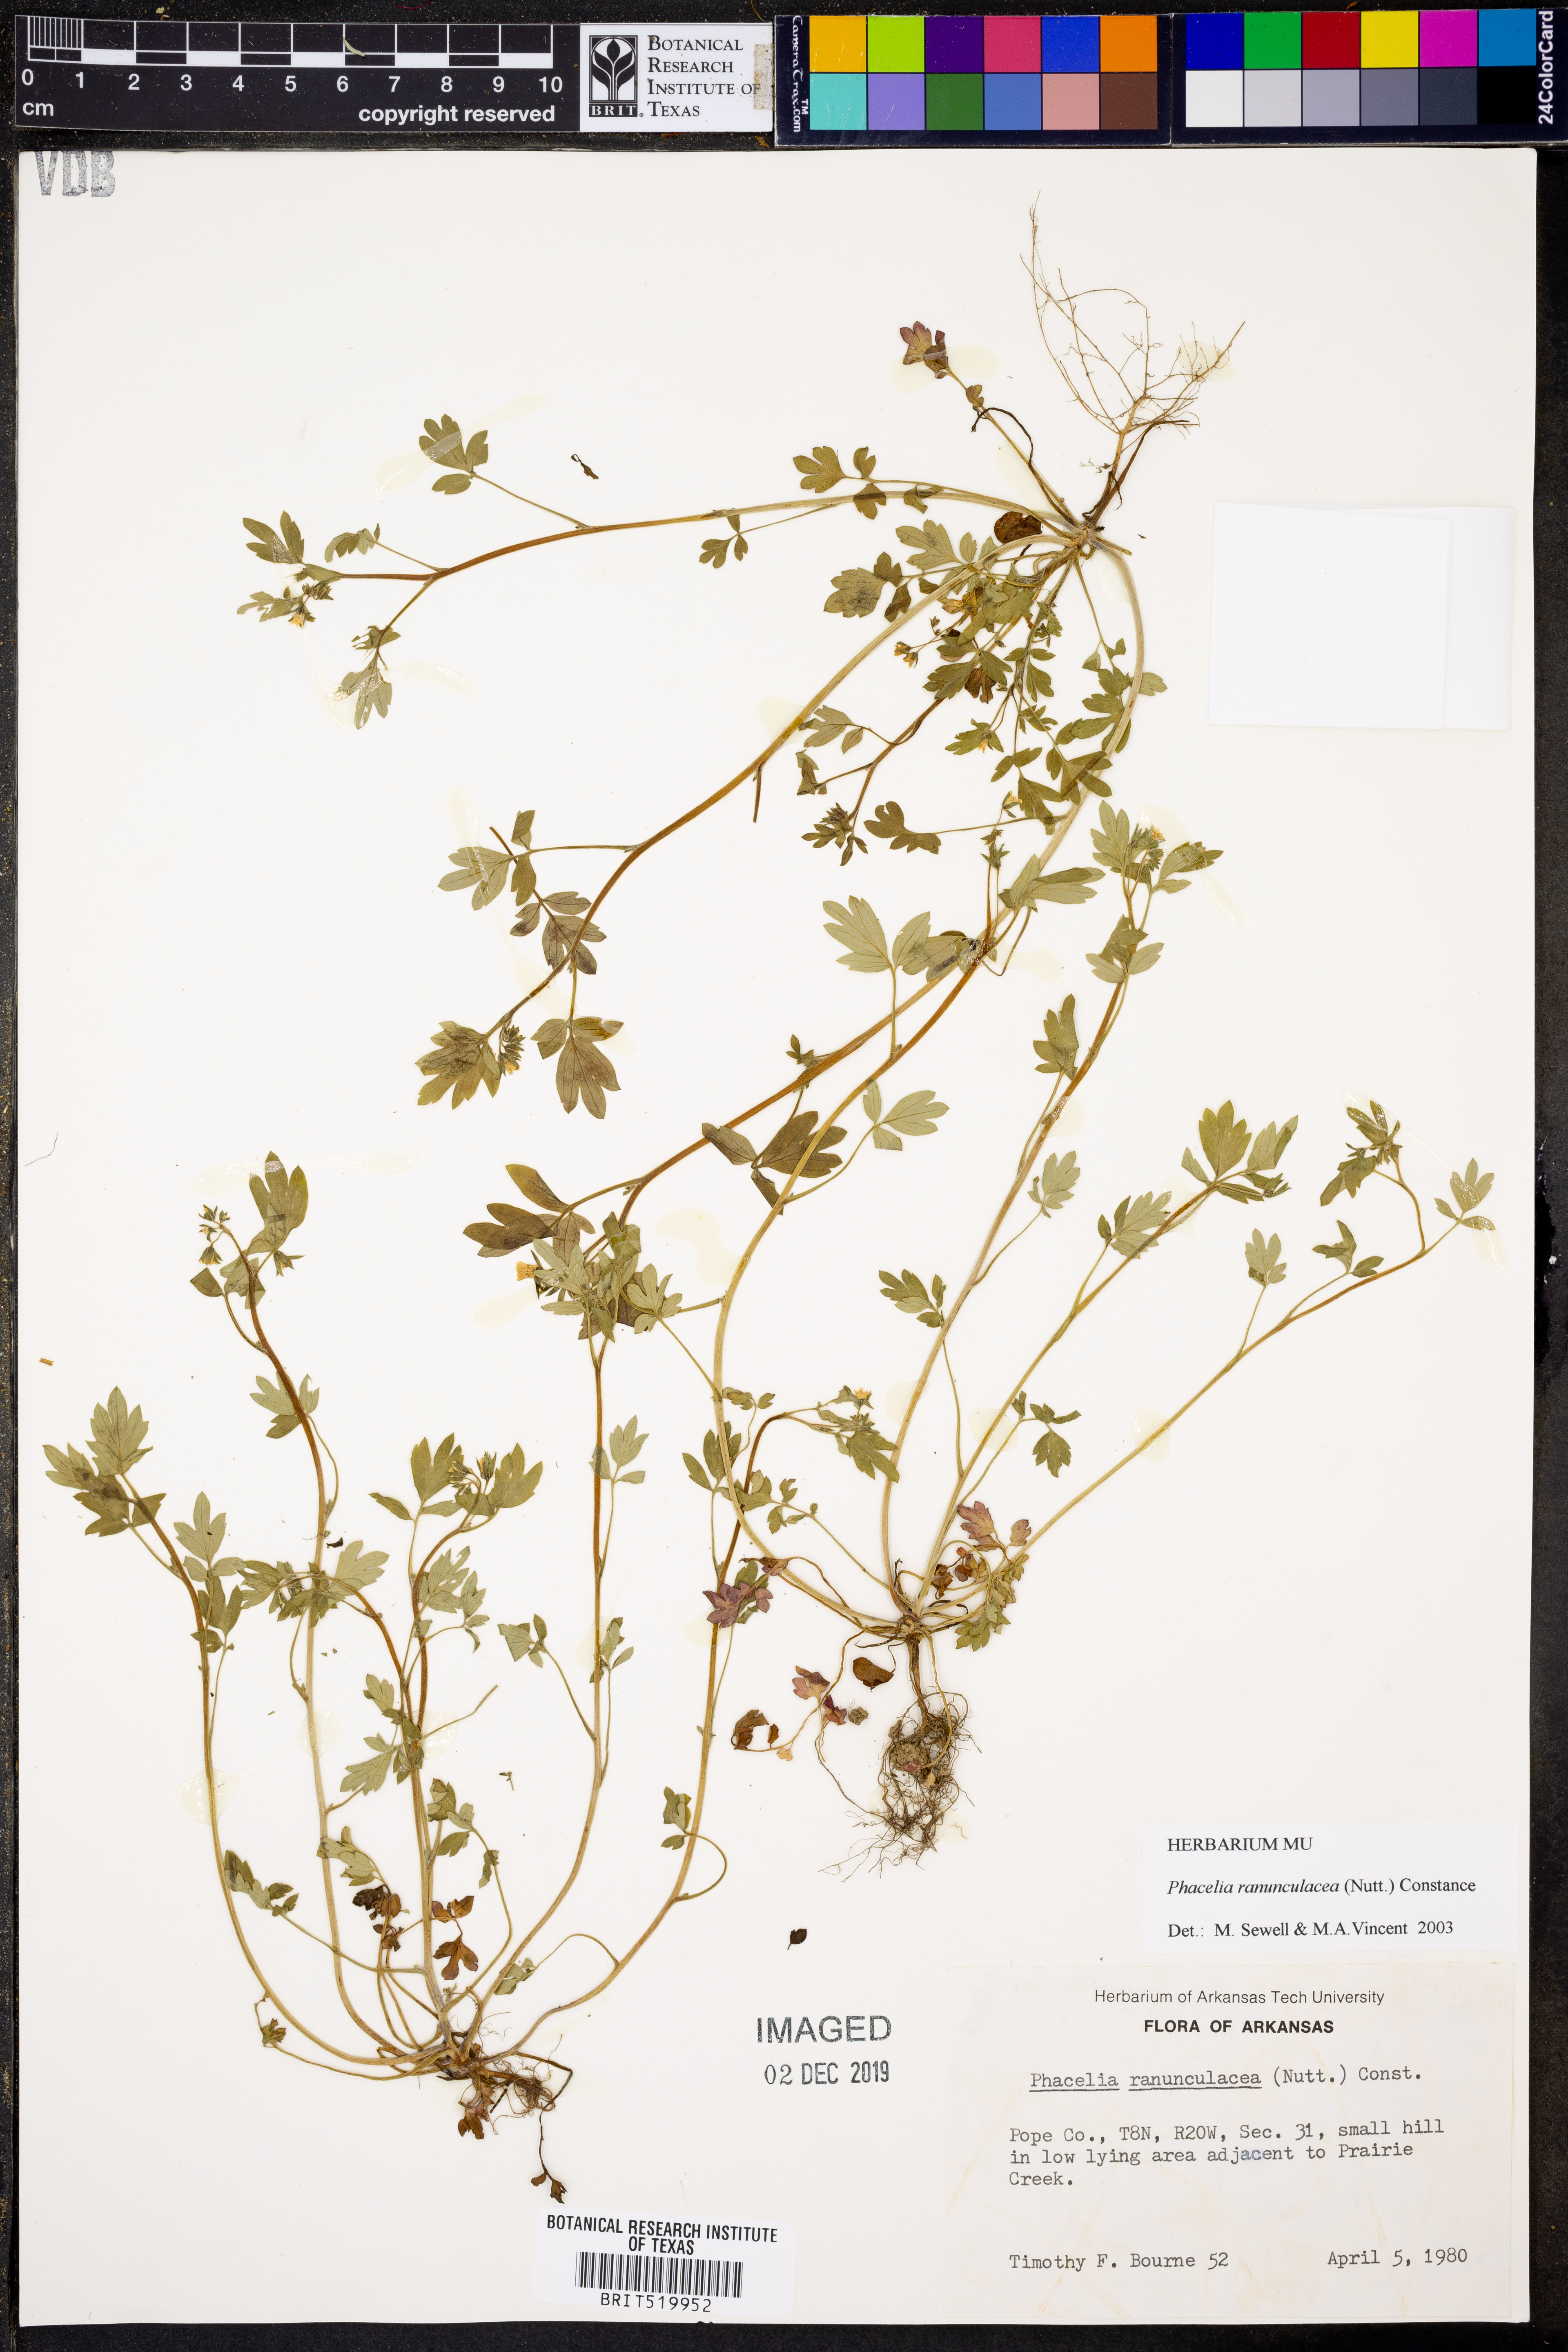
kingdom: Plantae
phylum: Tracheophyta
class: Magnoliopsida
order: Boraginales
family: Hydrophyllaceae
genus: Phacelia
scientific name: Phacelia ranunculacea
